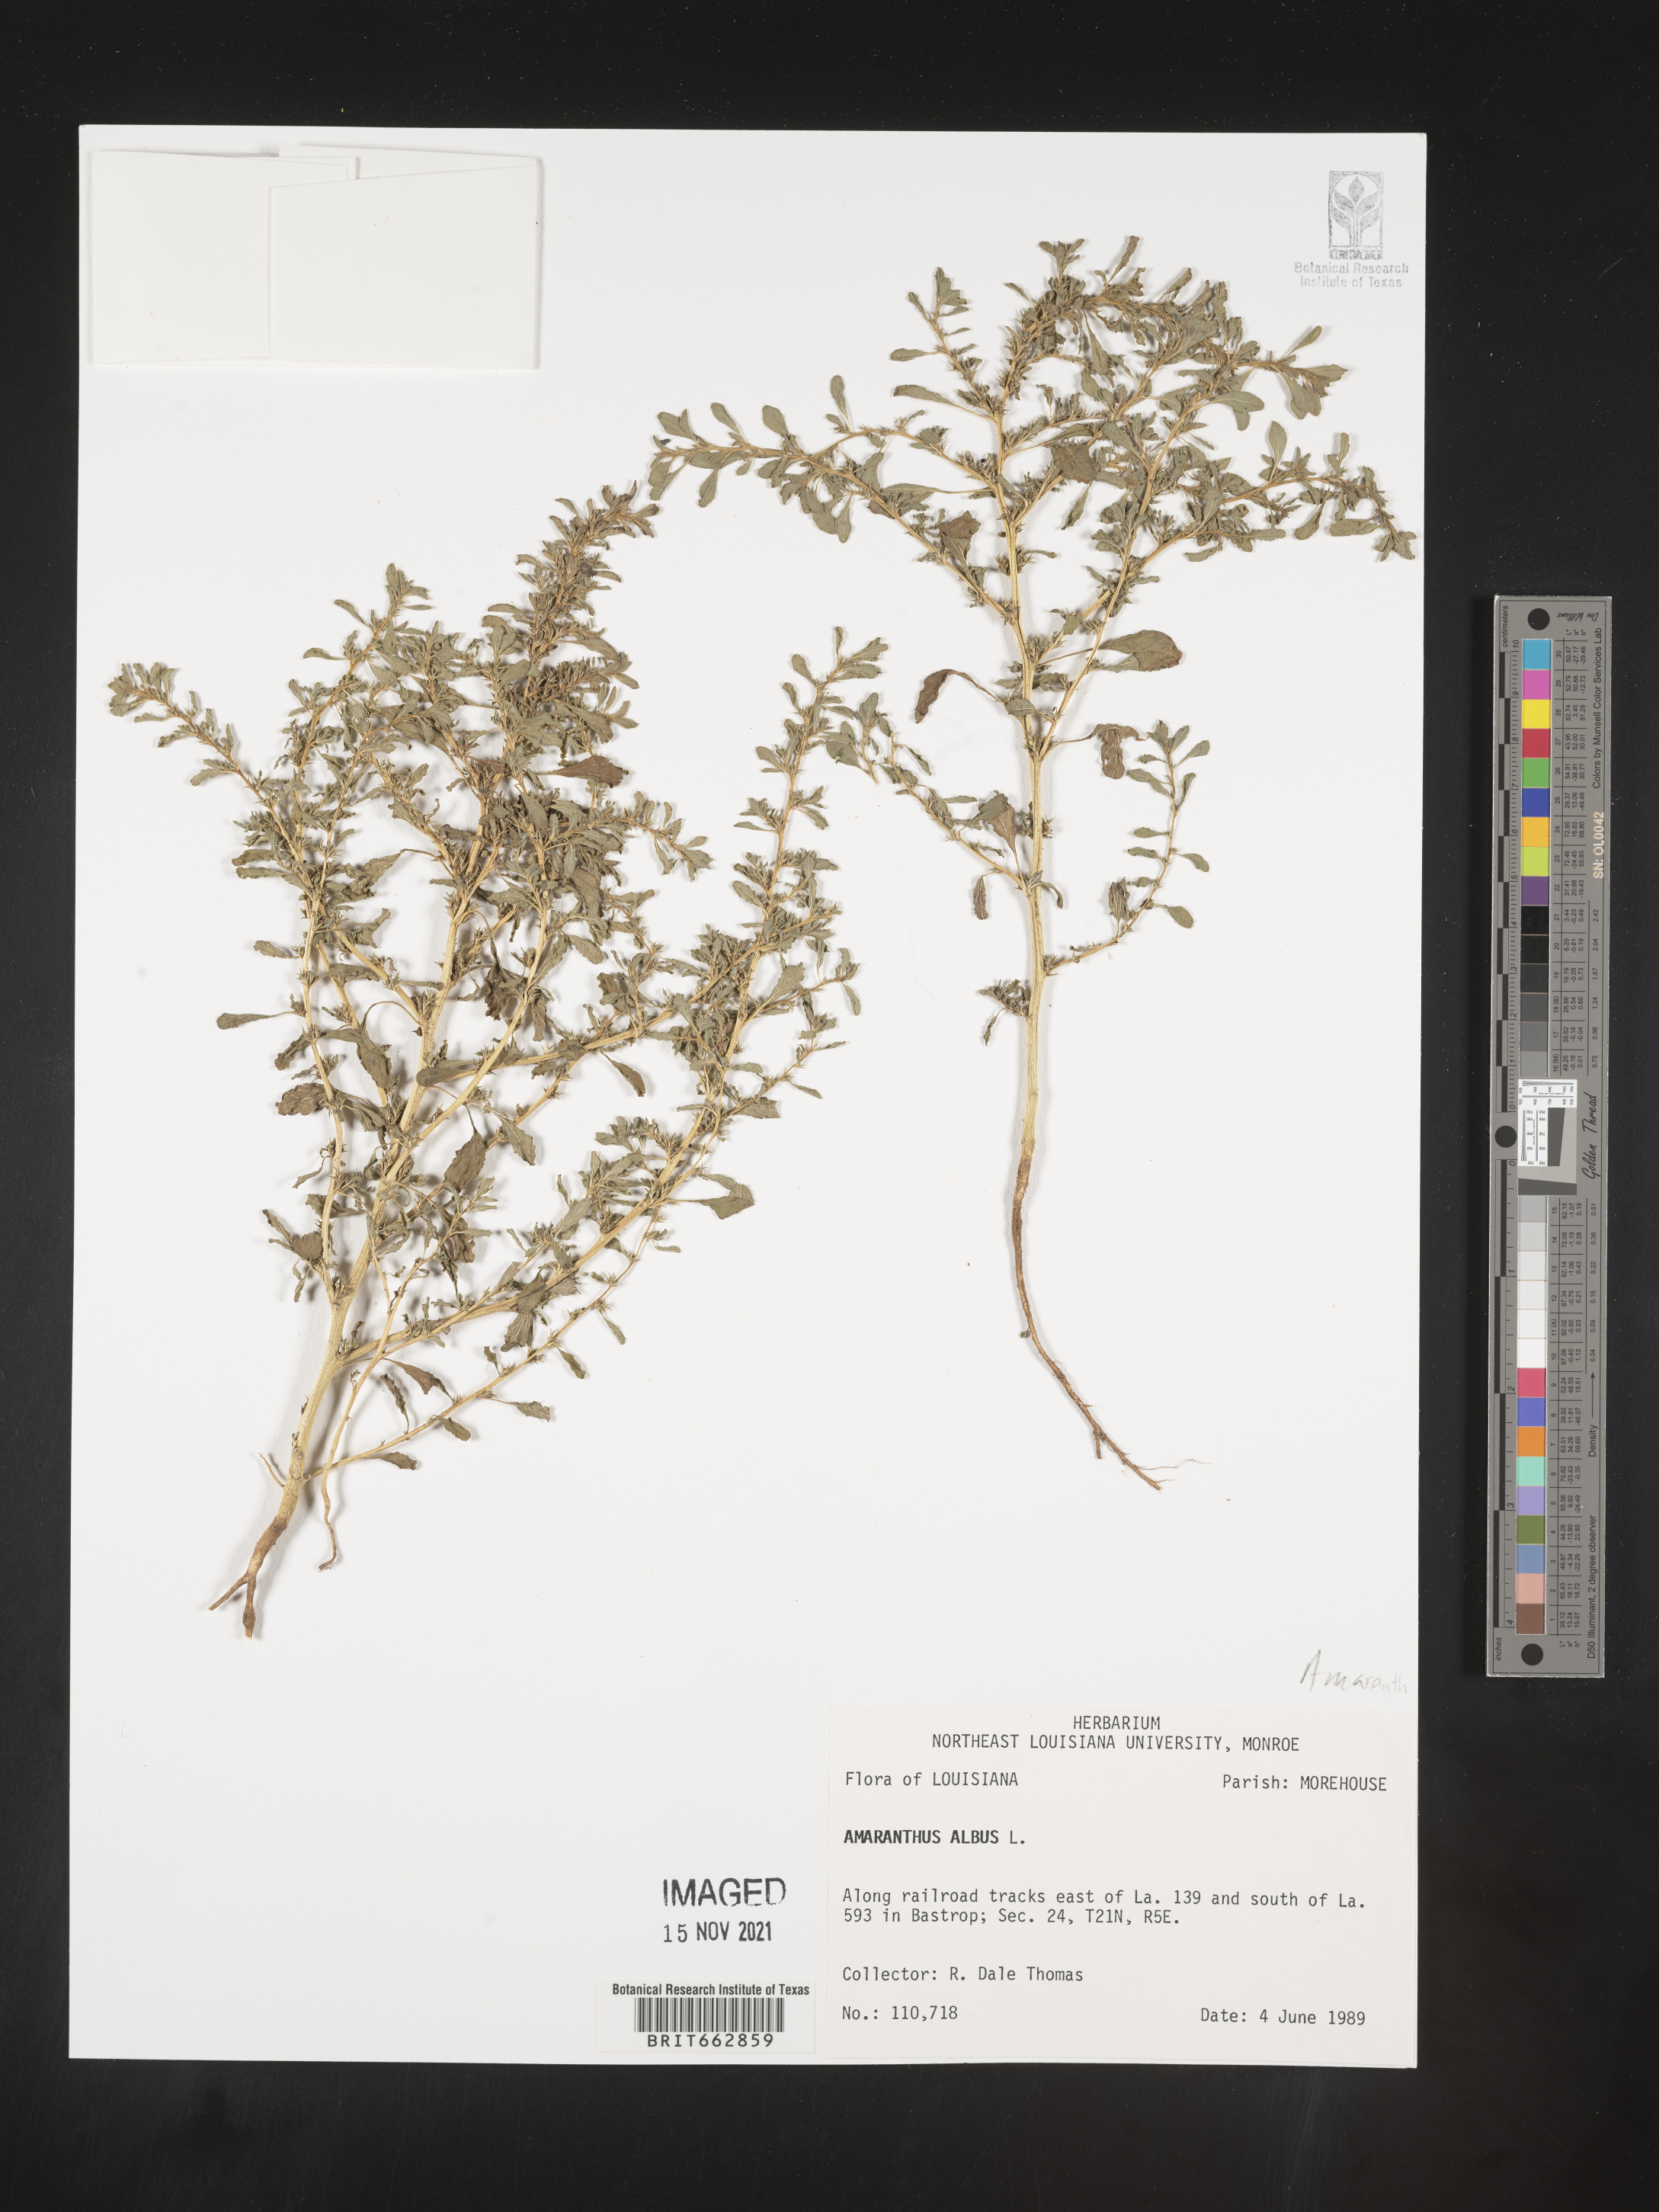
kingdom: Plantae
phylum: Tracheophyta
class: Magnoliopsida
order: Caryophyllales
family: Amaranthaceae
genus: Amaranthus
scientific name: Amaranthus albus
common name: White pigweed
